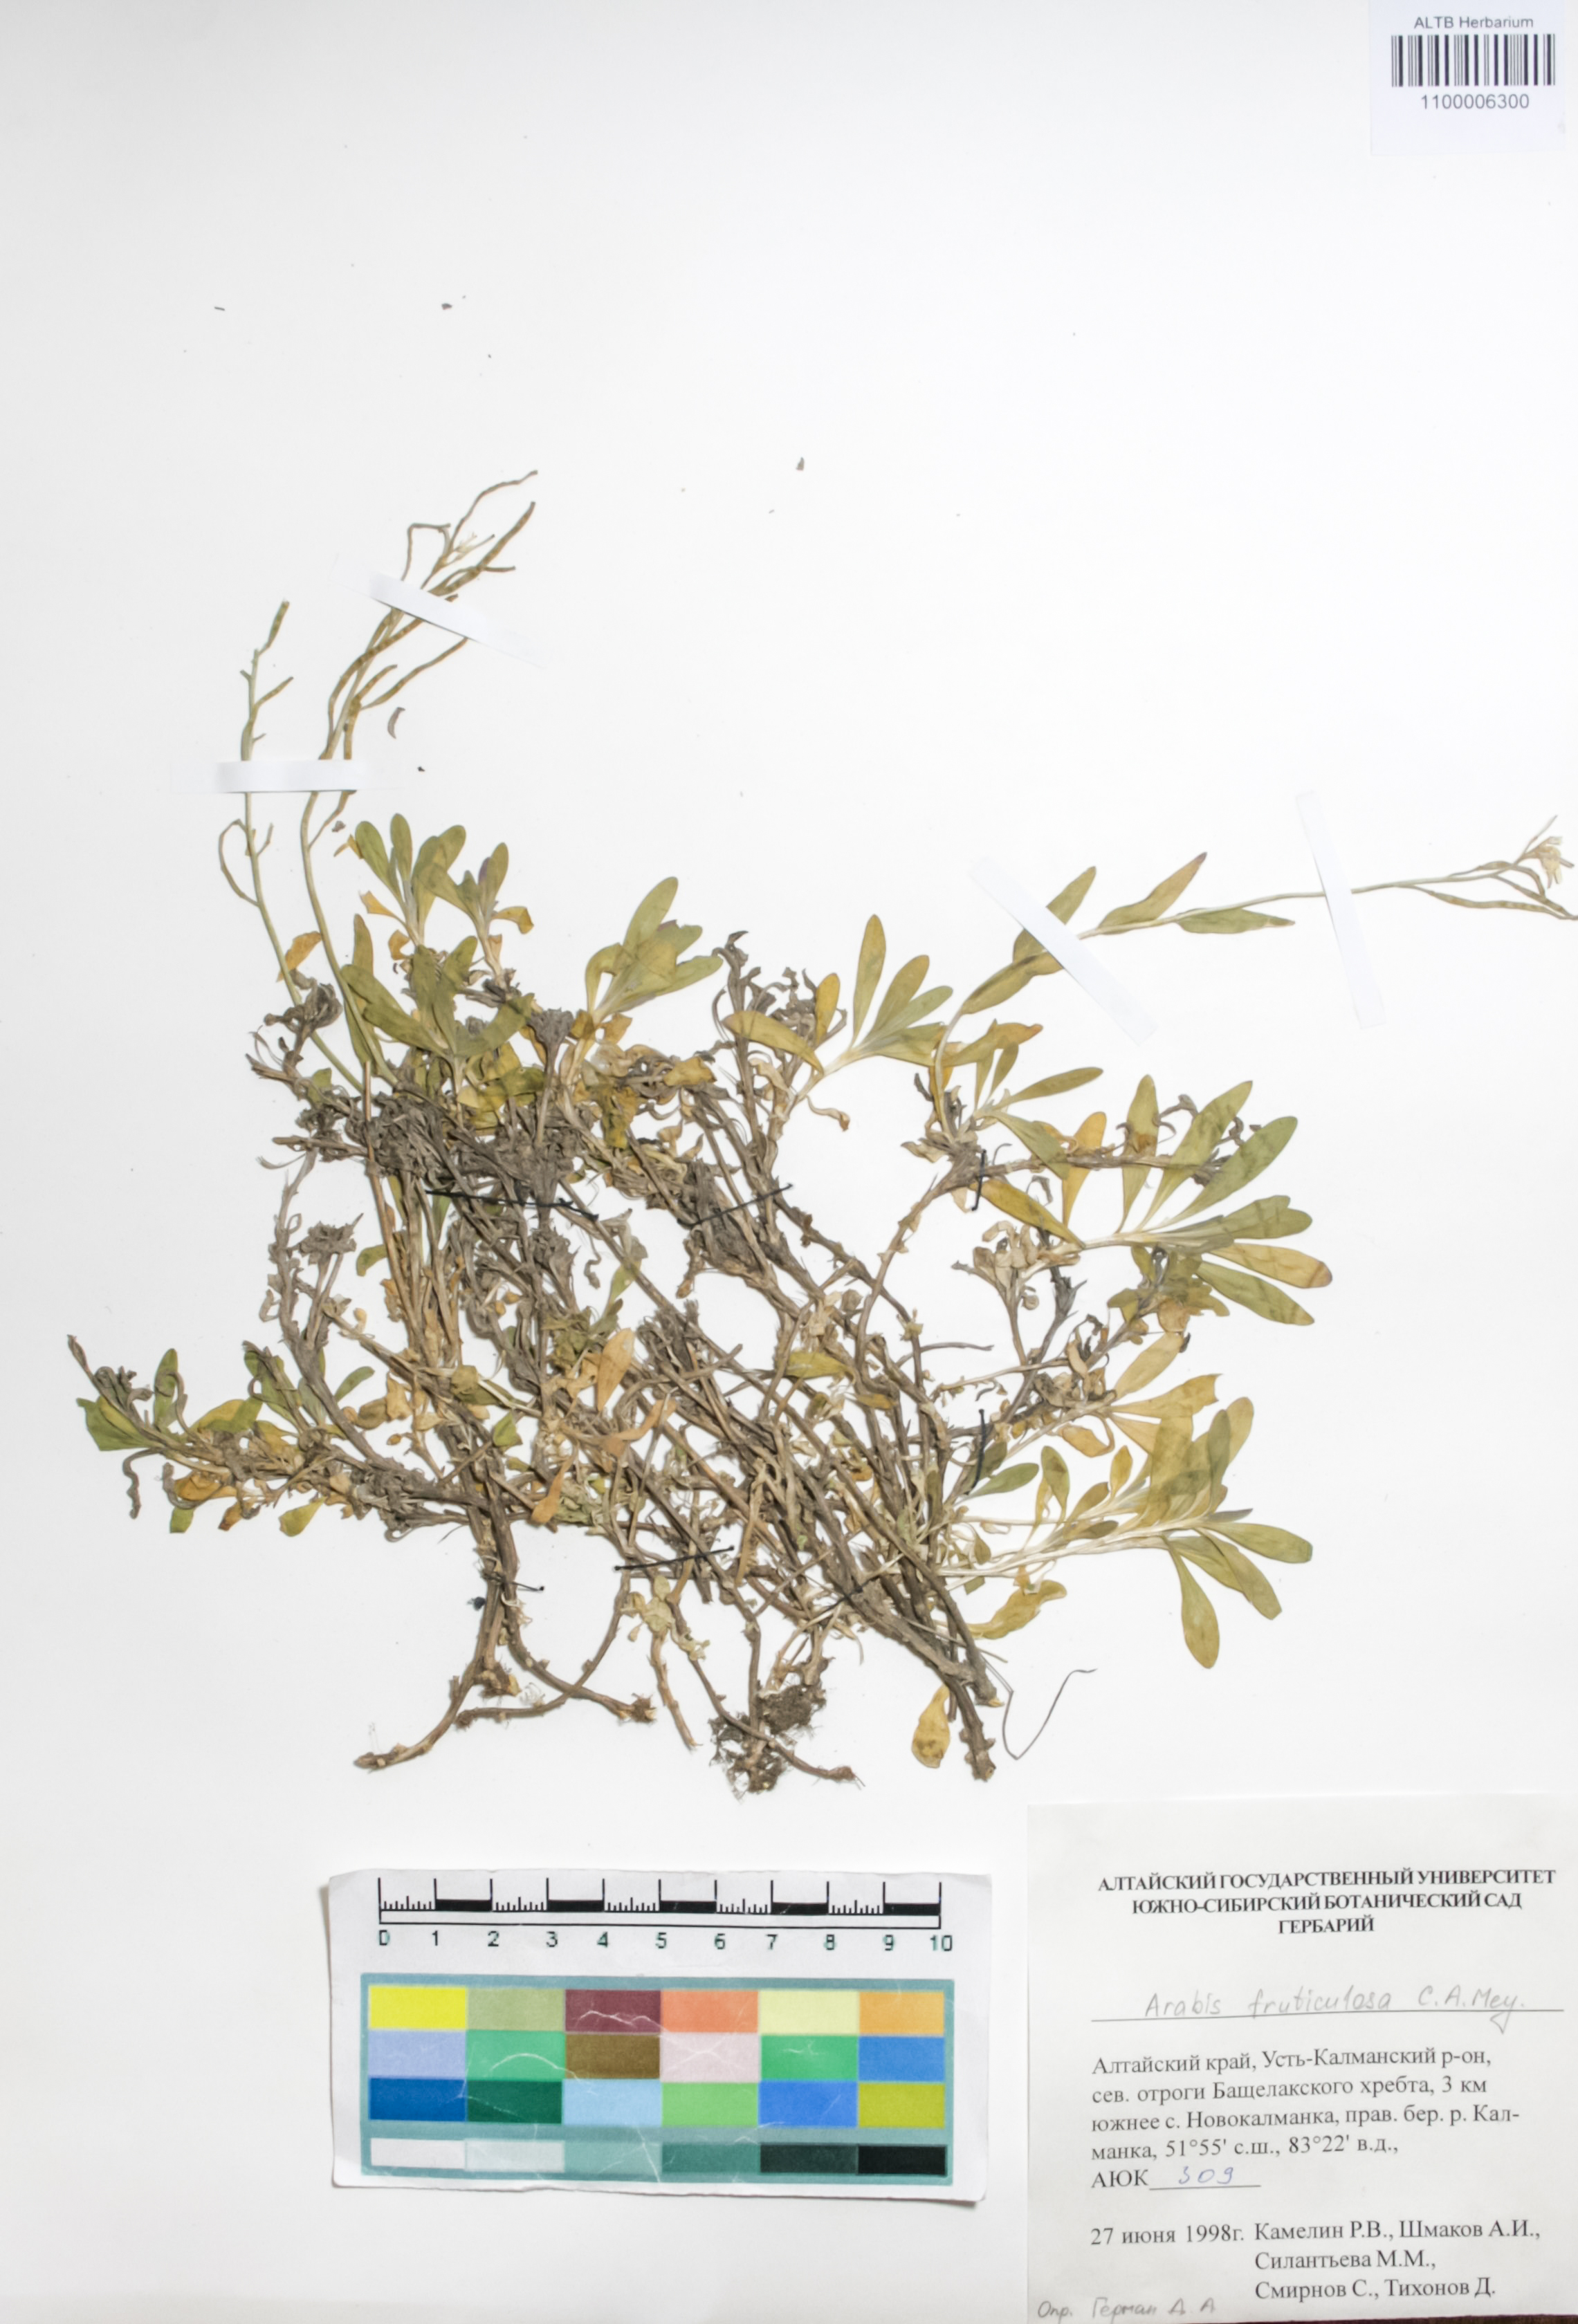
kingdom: Plantae
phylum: Tracheophyta
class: Magnoliopsida
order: Brassicales
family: Brassicaceae
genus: Dendroarabis
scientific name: Dendroarabis fruticulosa
